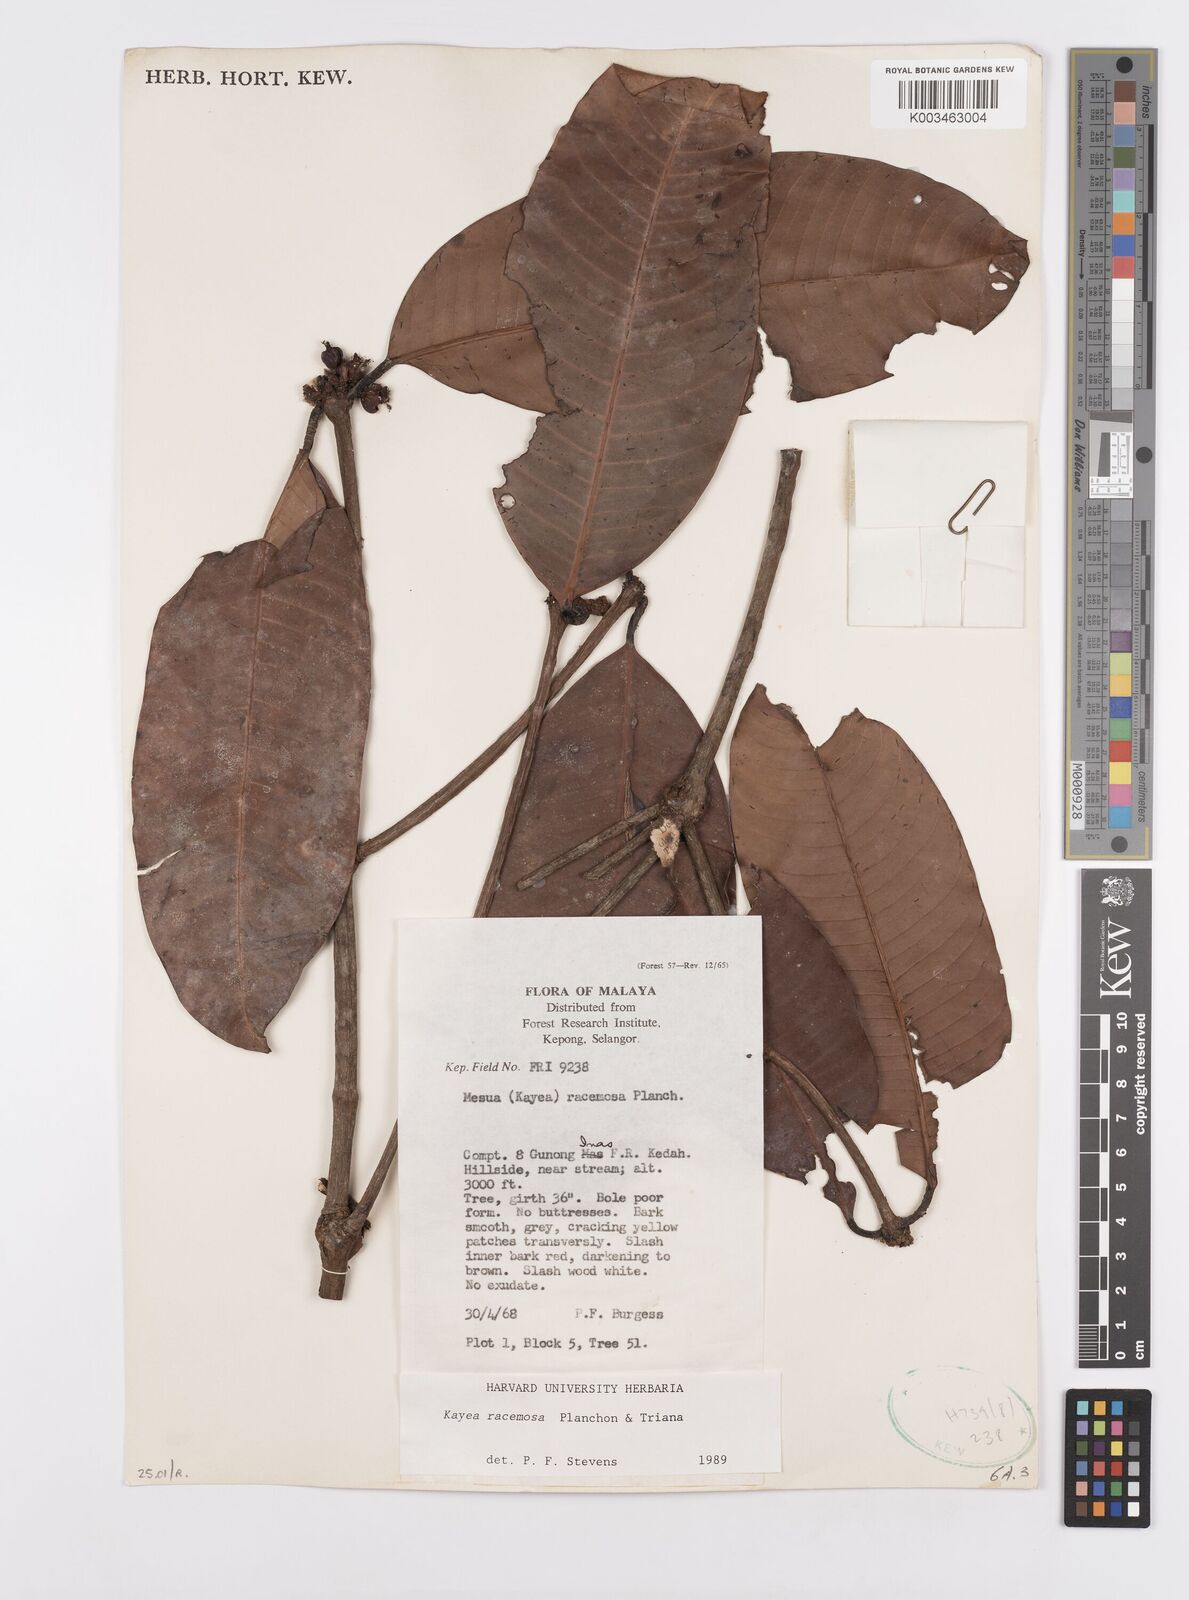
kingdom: Plantae
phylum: Tracheophyta
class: Magnoliopsida
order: Malpighiales
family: Calophyllaceae
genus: Kayea
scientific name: Kayea racemosa
